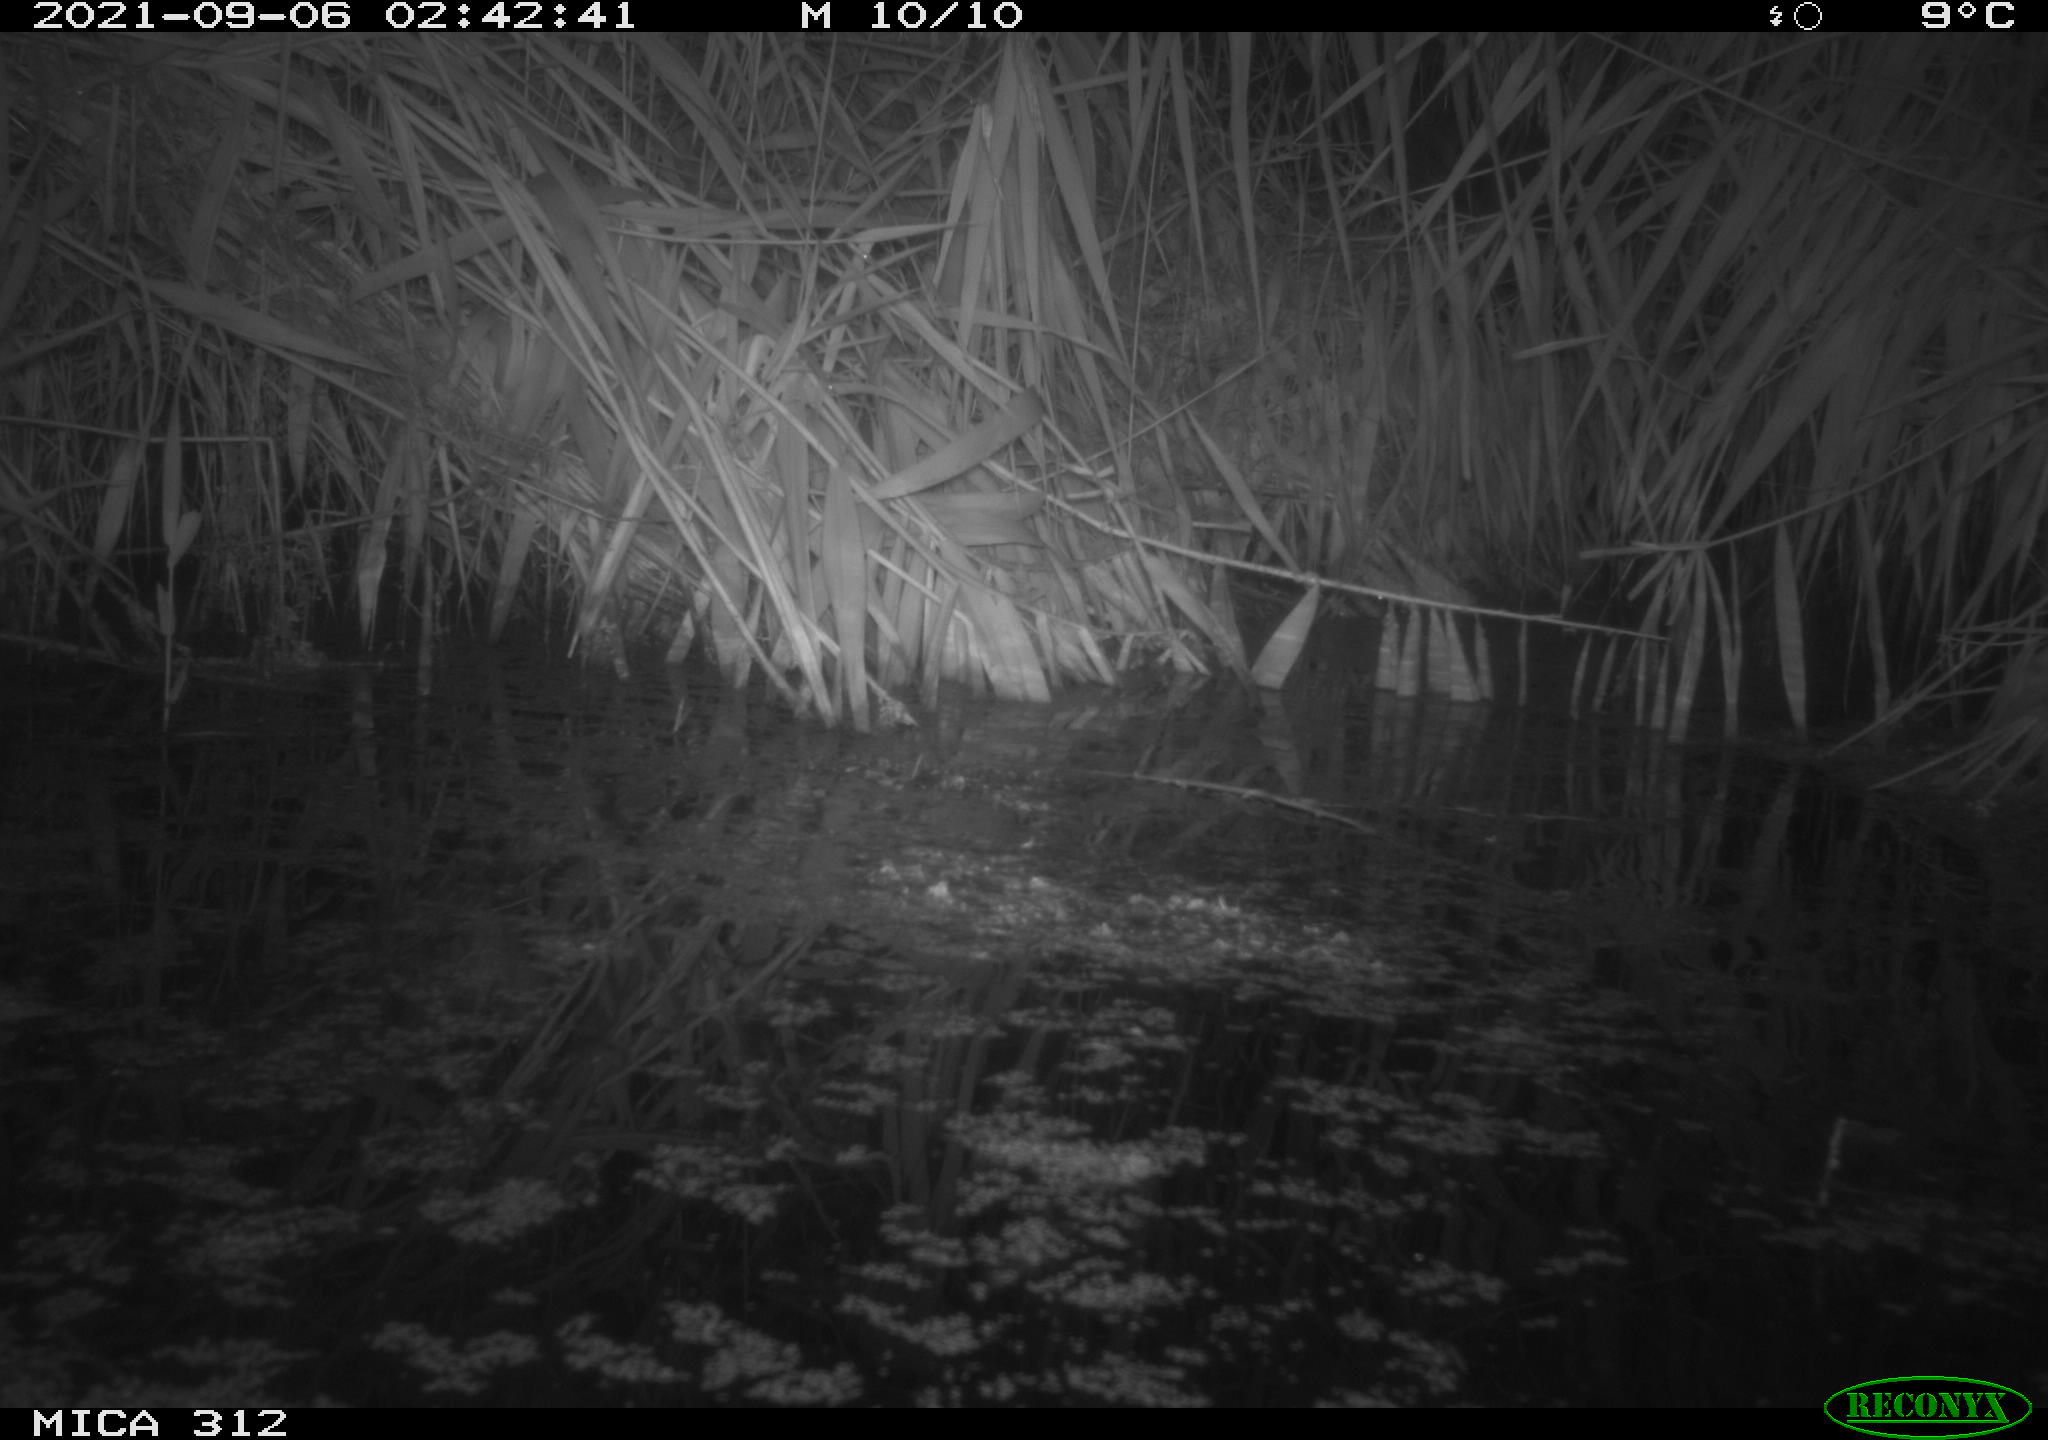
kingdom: Animalia
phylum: Chordata
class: Mammalia
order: Rodentia
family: Cricetidae
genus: Ondatra
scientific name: Ondatra zibethicus
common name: Muskrat
